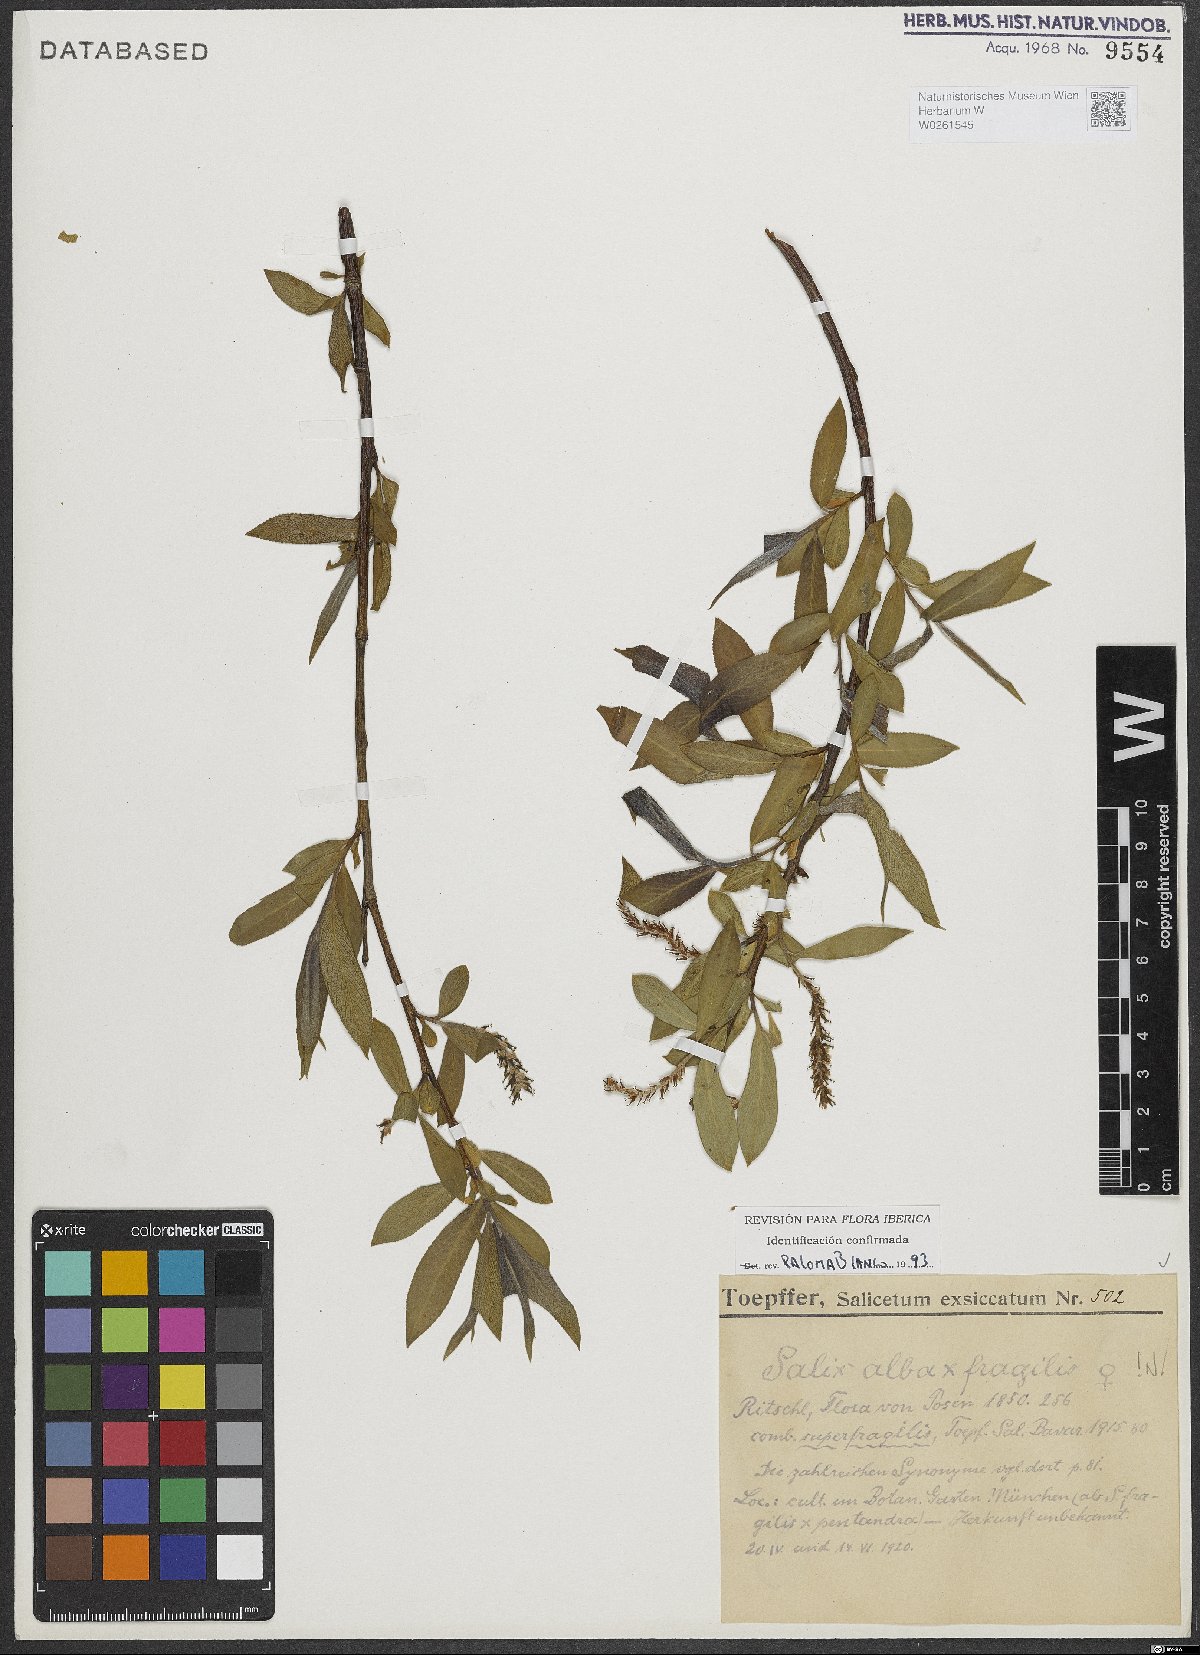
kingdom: Plantae
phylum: Tracheophyta
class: Magnoliopsida
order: Malpighiales
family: Salicaceae
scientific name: Salicaceae
